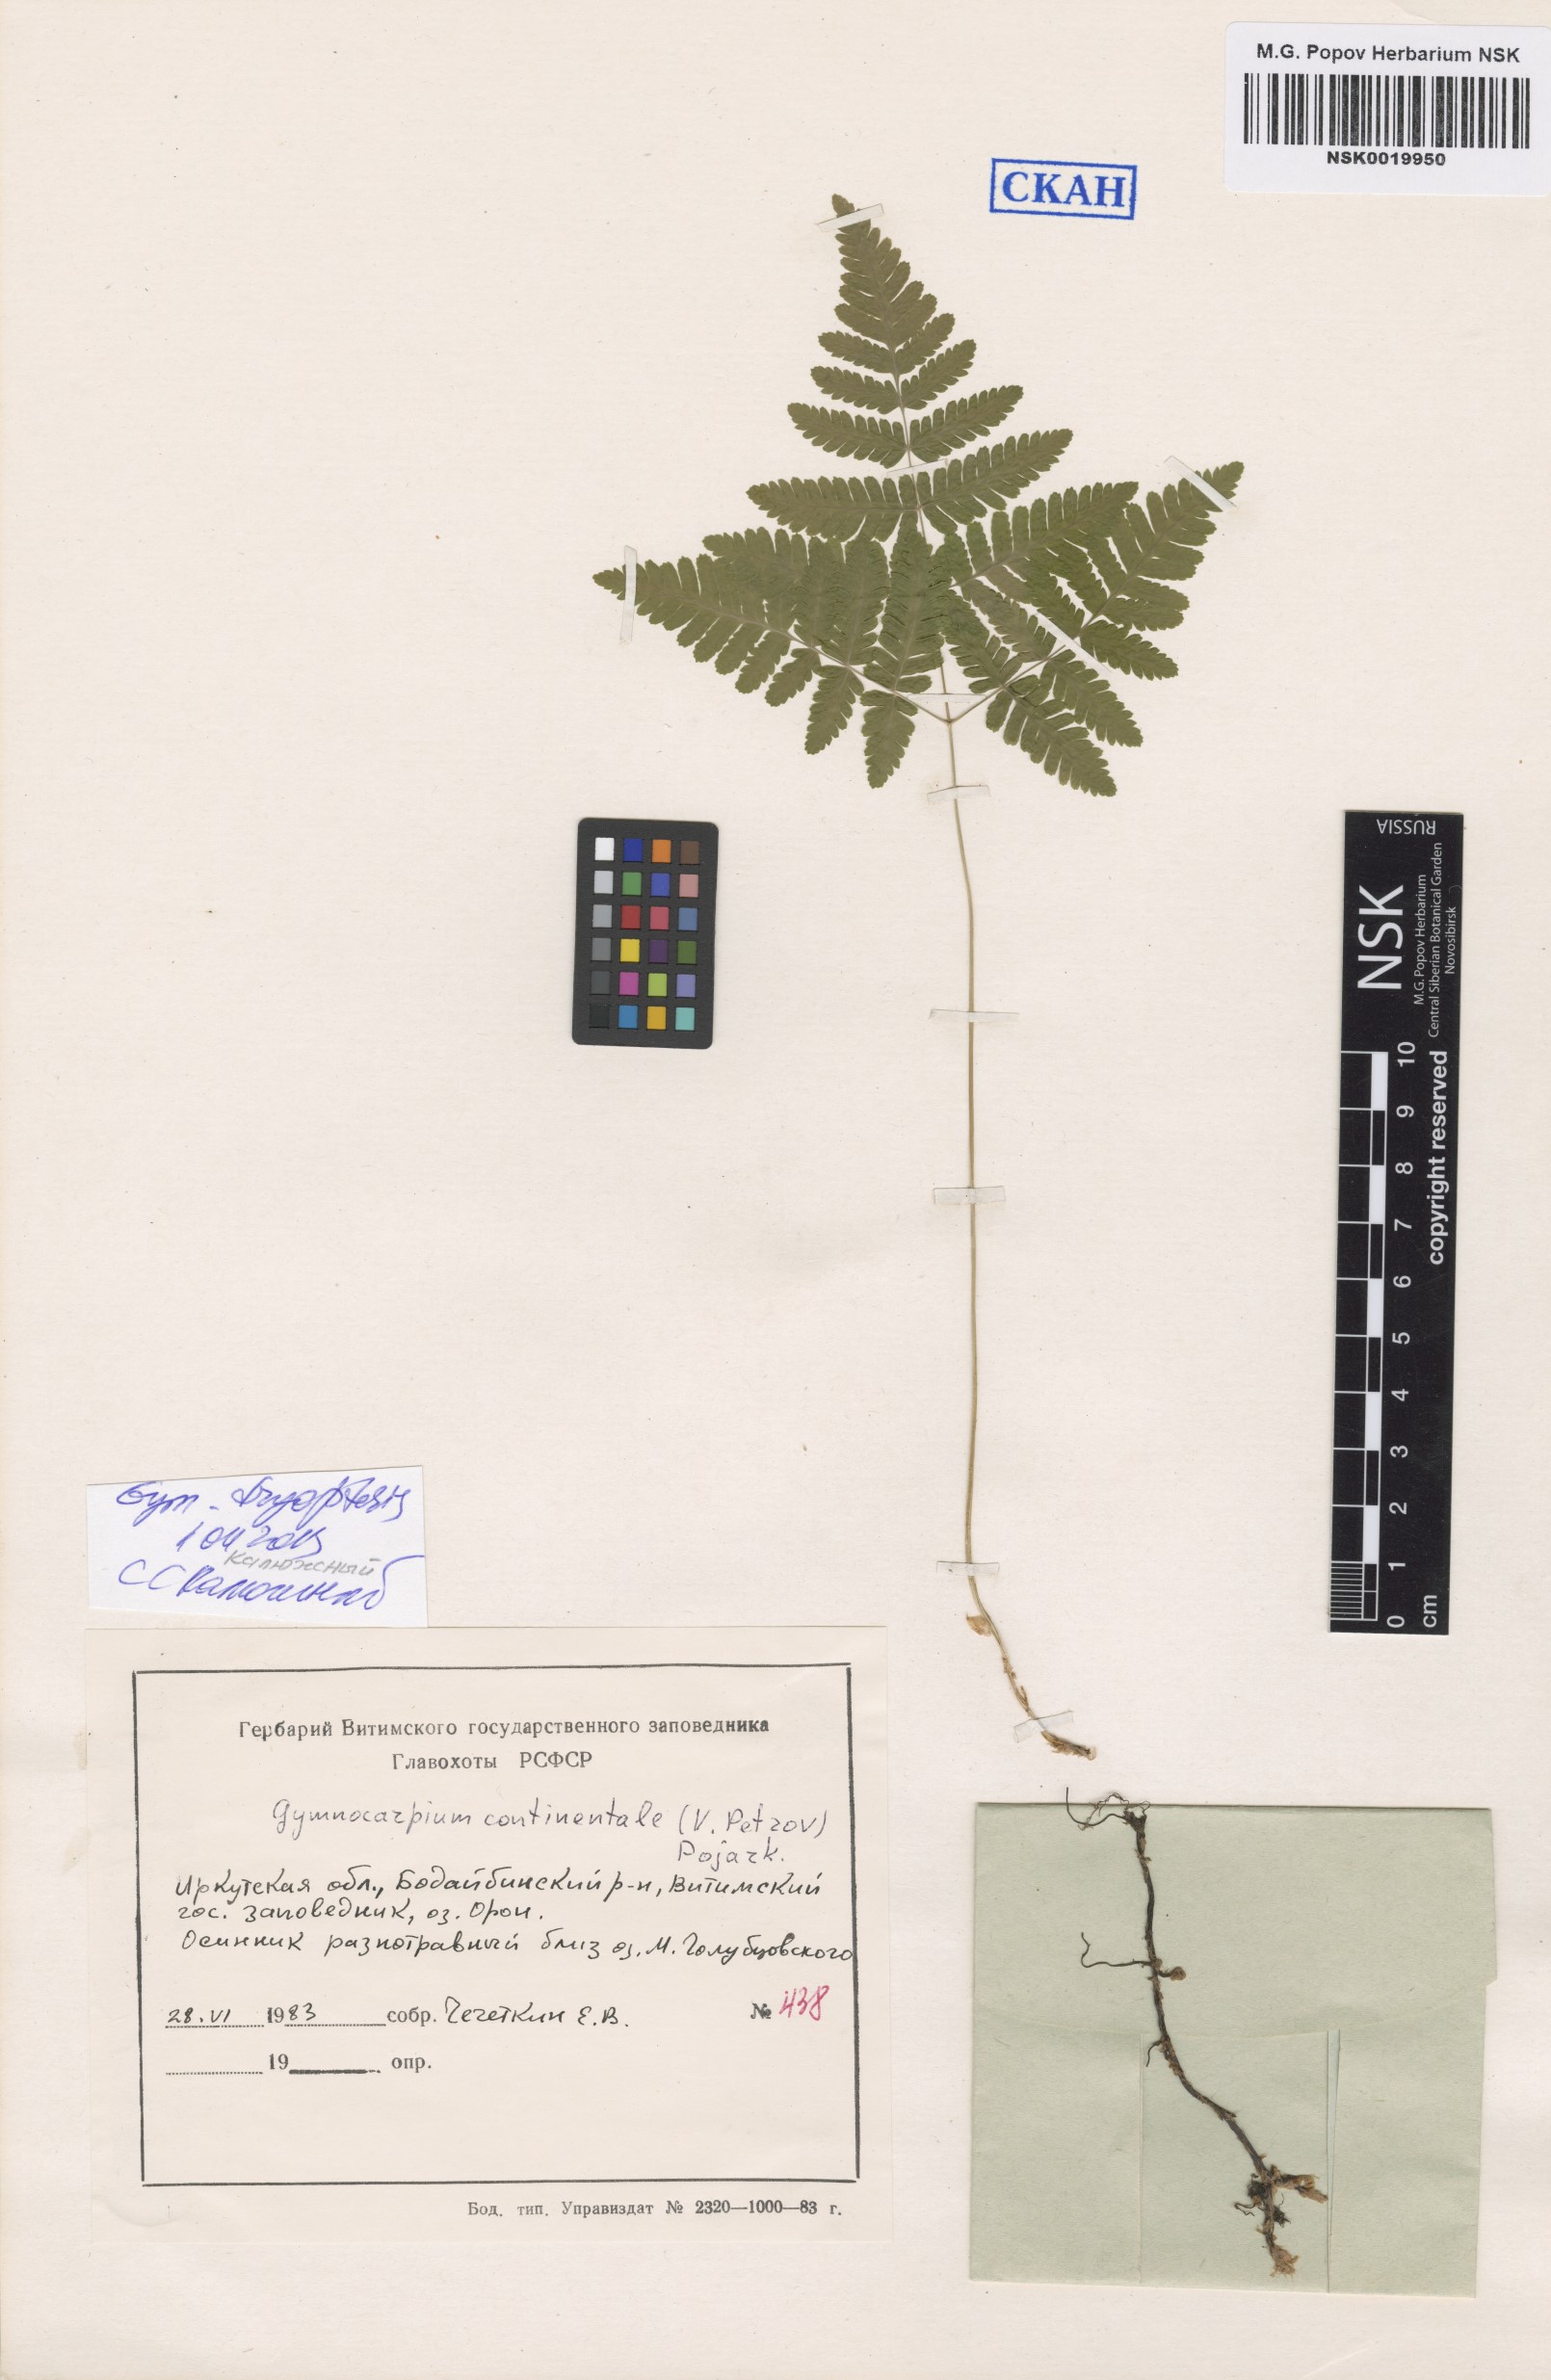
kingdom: Plantae
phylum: Tracheophyta
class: Polypodiopsida
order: Polypodiales
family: Cystopteridaceae
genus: Gymnocarpium
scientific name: Gymnocarpium dryopteris
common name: Oak fern
